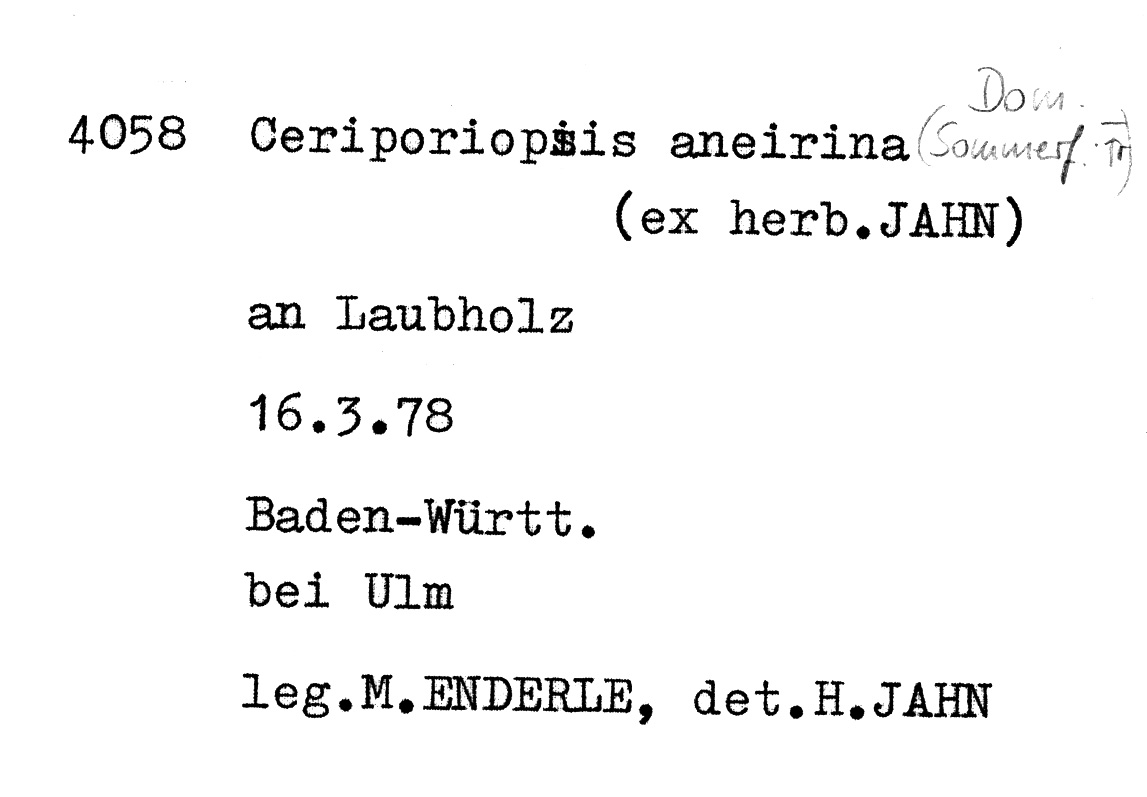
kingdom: Fungi
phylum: Basidiomycota
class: Agaricomycetes
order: Polyporales
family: Cerrenaceae
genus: Raduliporus
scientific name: Raduliporus aneirinus
